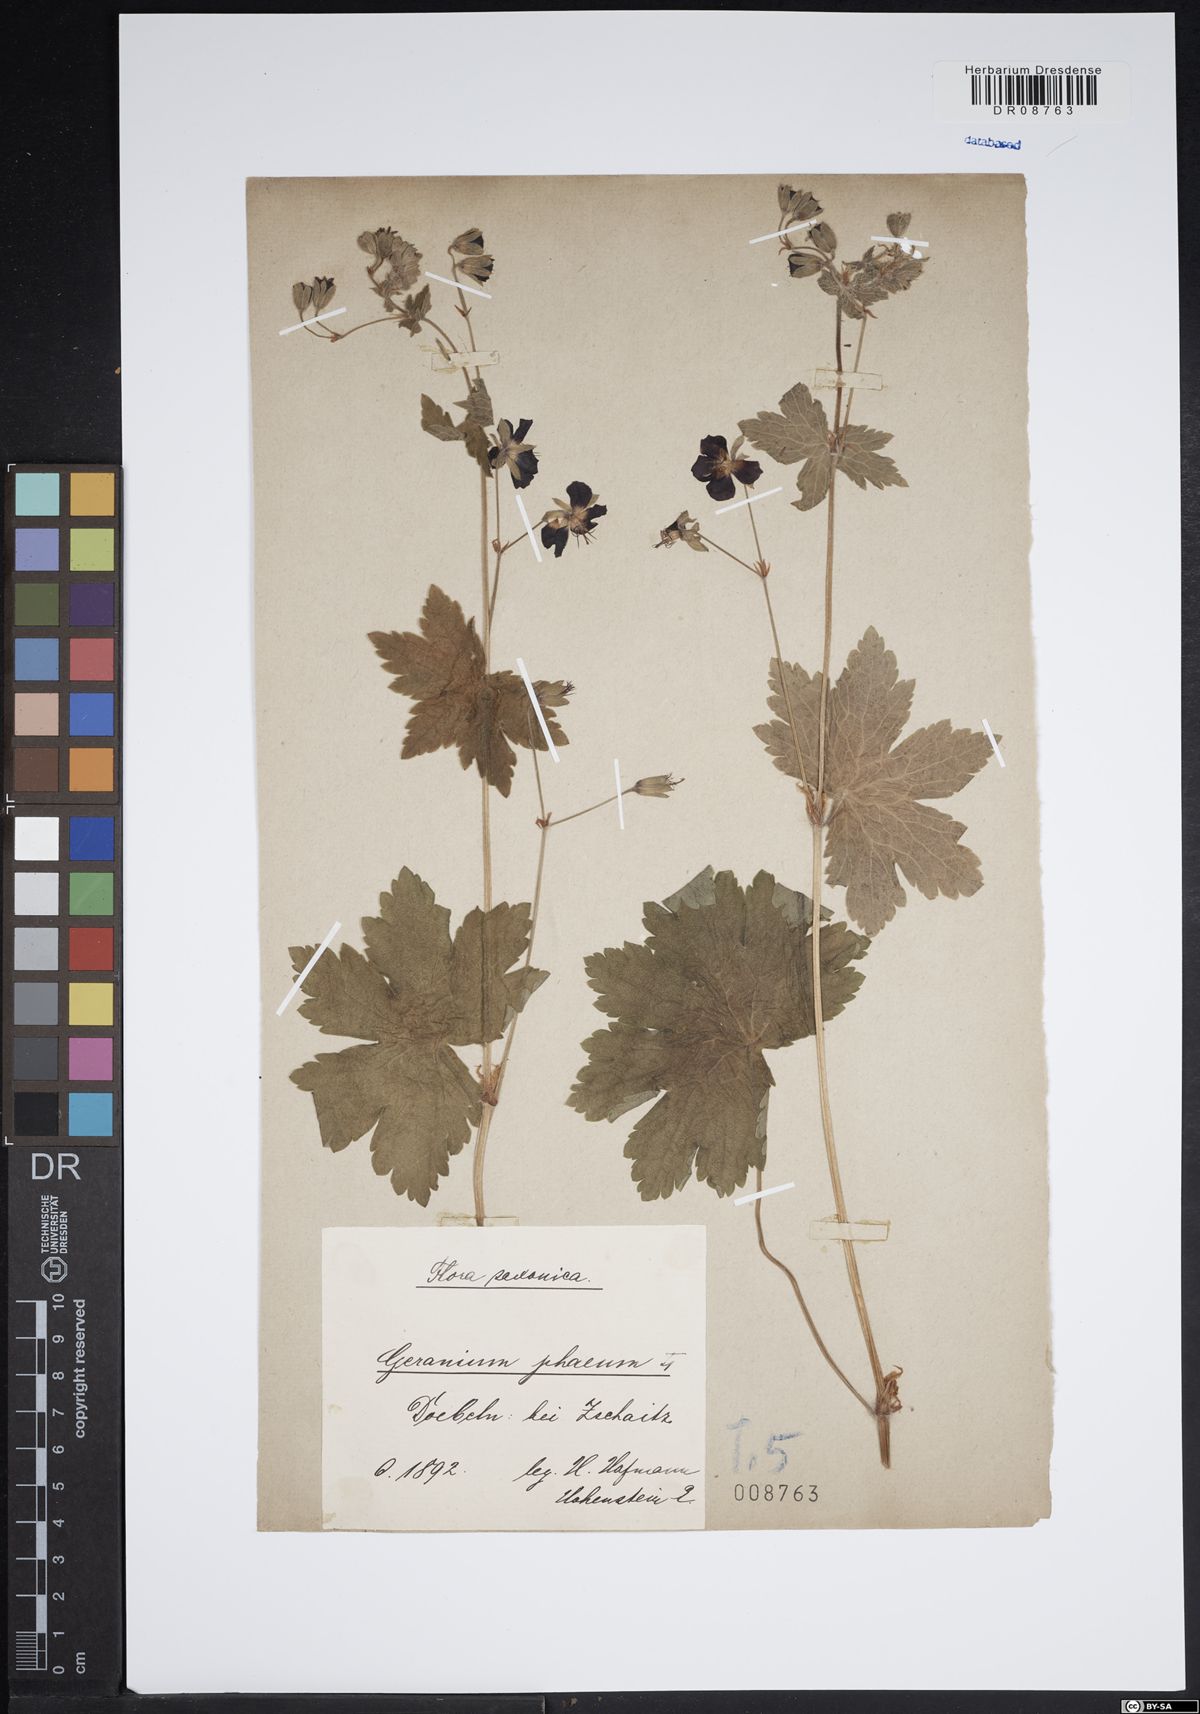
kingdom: Plantae
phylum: Tracheophyta
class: Magnoliopsida
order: Geraniales
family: Geraniaceae
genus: Geranium
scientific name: Geranium phaeum
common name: Dusky crane's-bill
